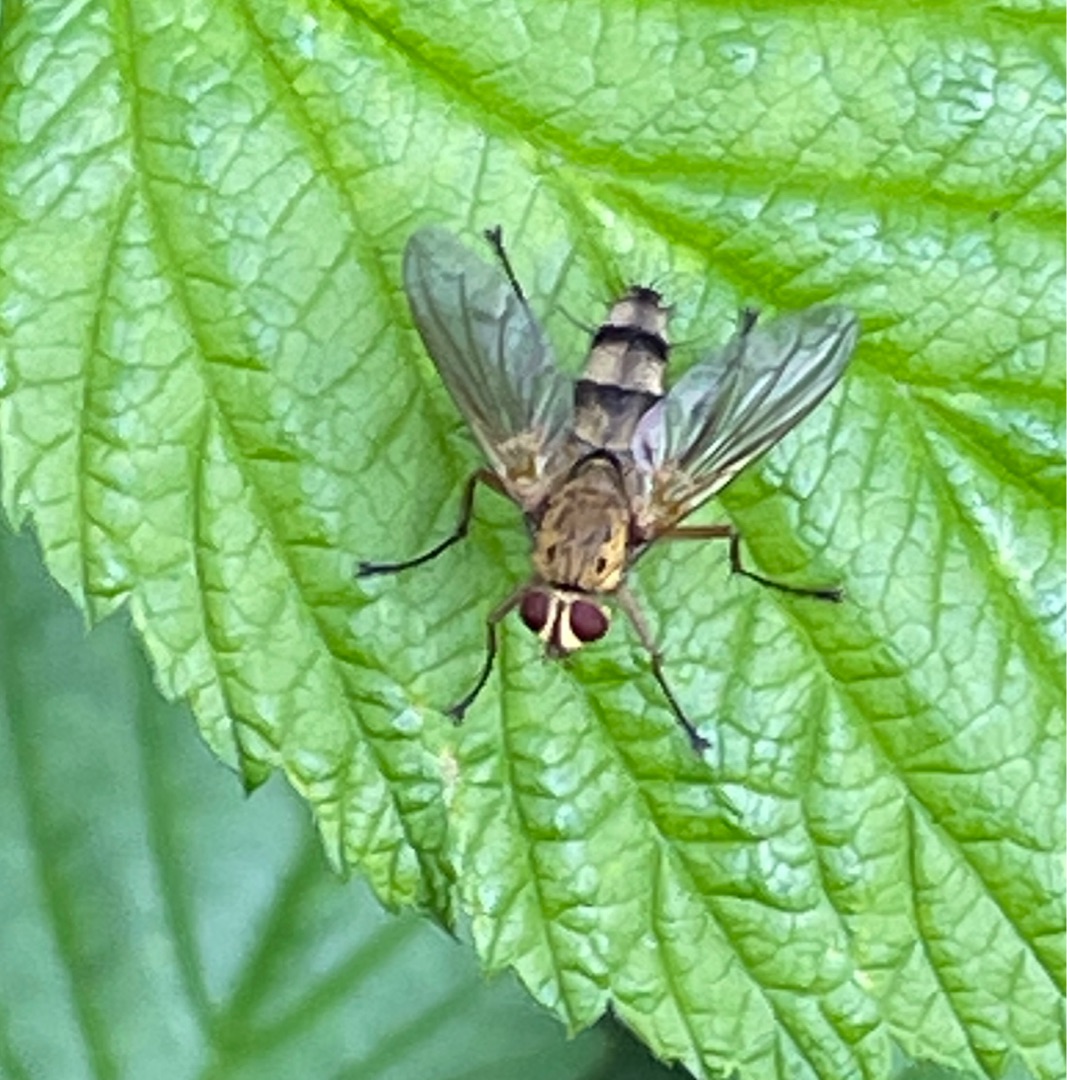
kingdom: Animalia
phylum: Arthropoda
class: Insecta
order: Diptera
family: Tachinidae
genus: Dexiosoma
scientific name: Dexiosoma caninum
